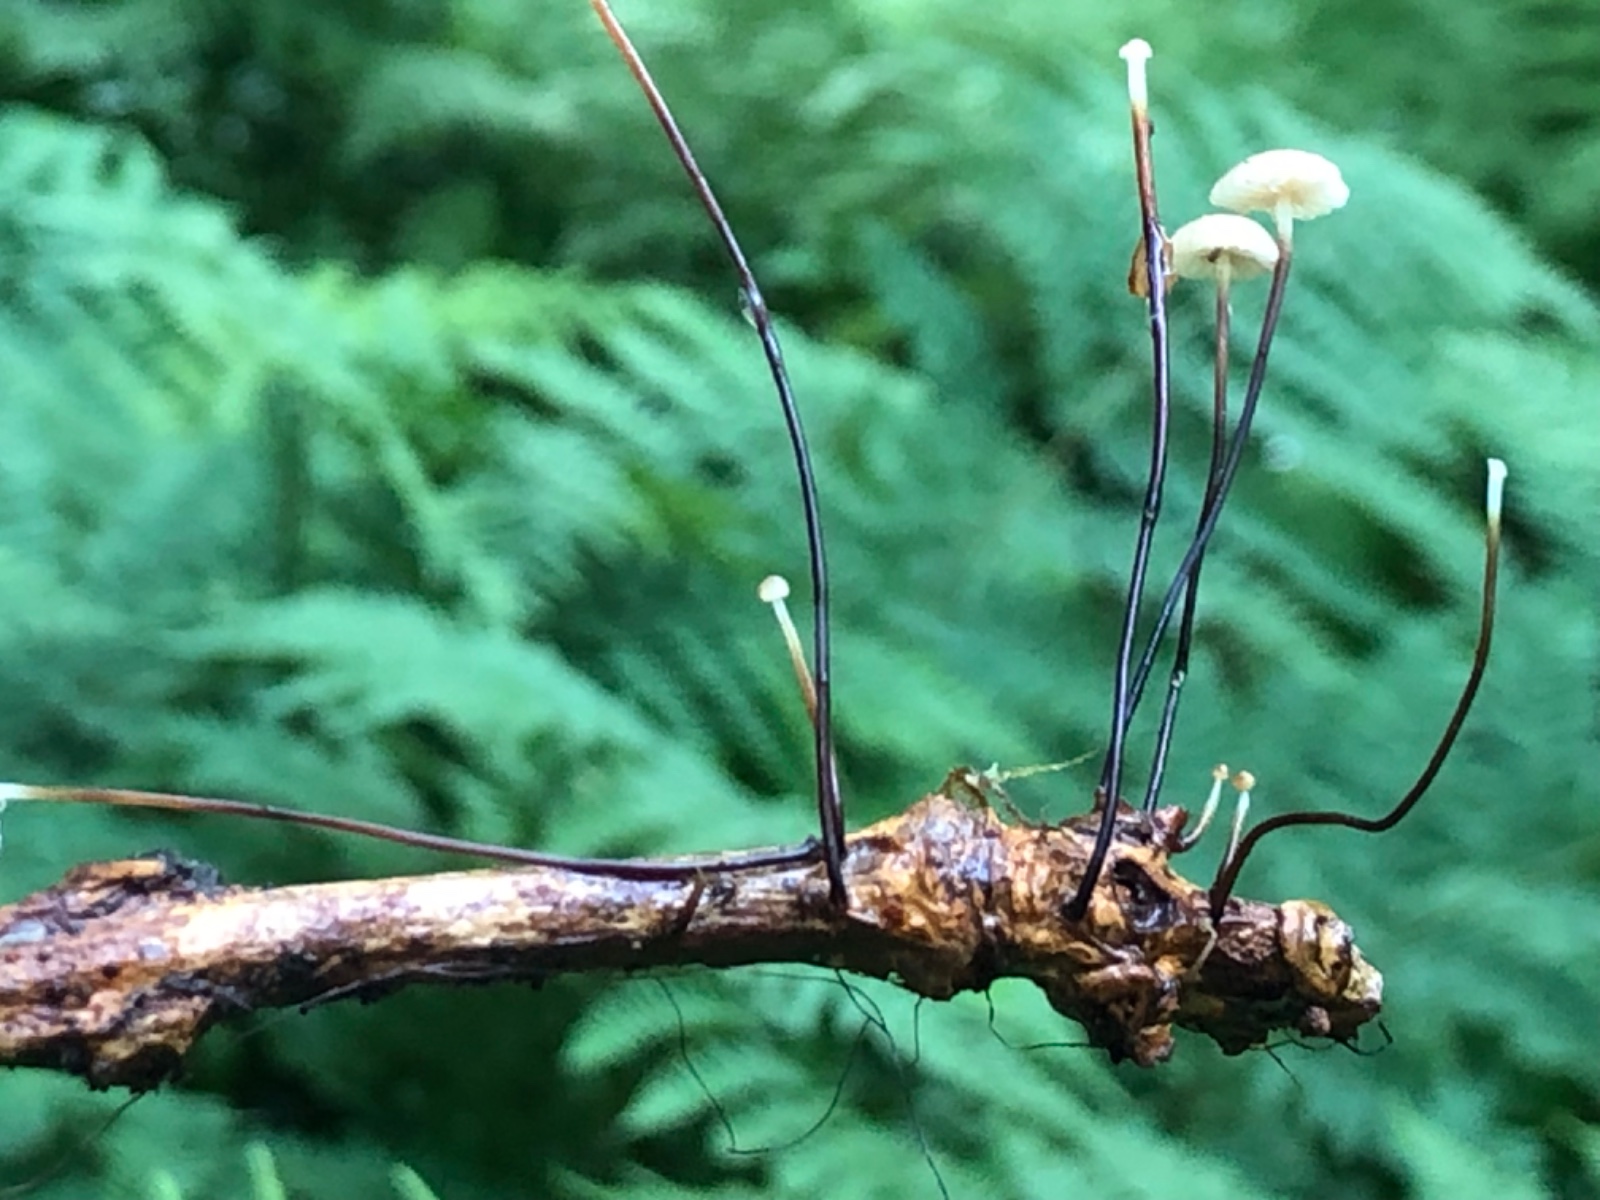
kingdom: Fungi
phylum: Basidiomycota
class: Agaricomycetes
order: Agaricales
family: Omphalotaceae
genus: Gymnopus
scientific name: Gymnopus androsaceus
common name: trådstokket fladhat
